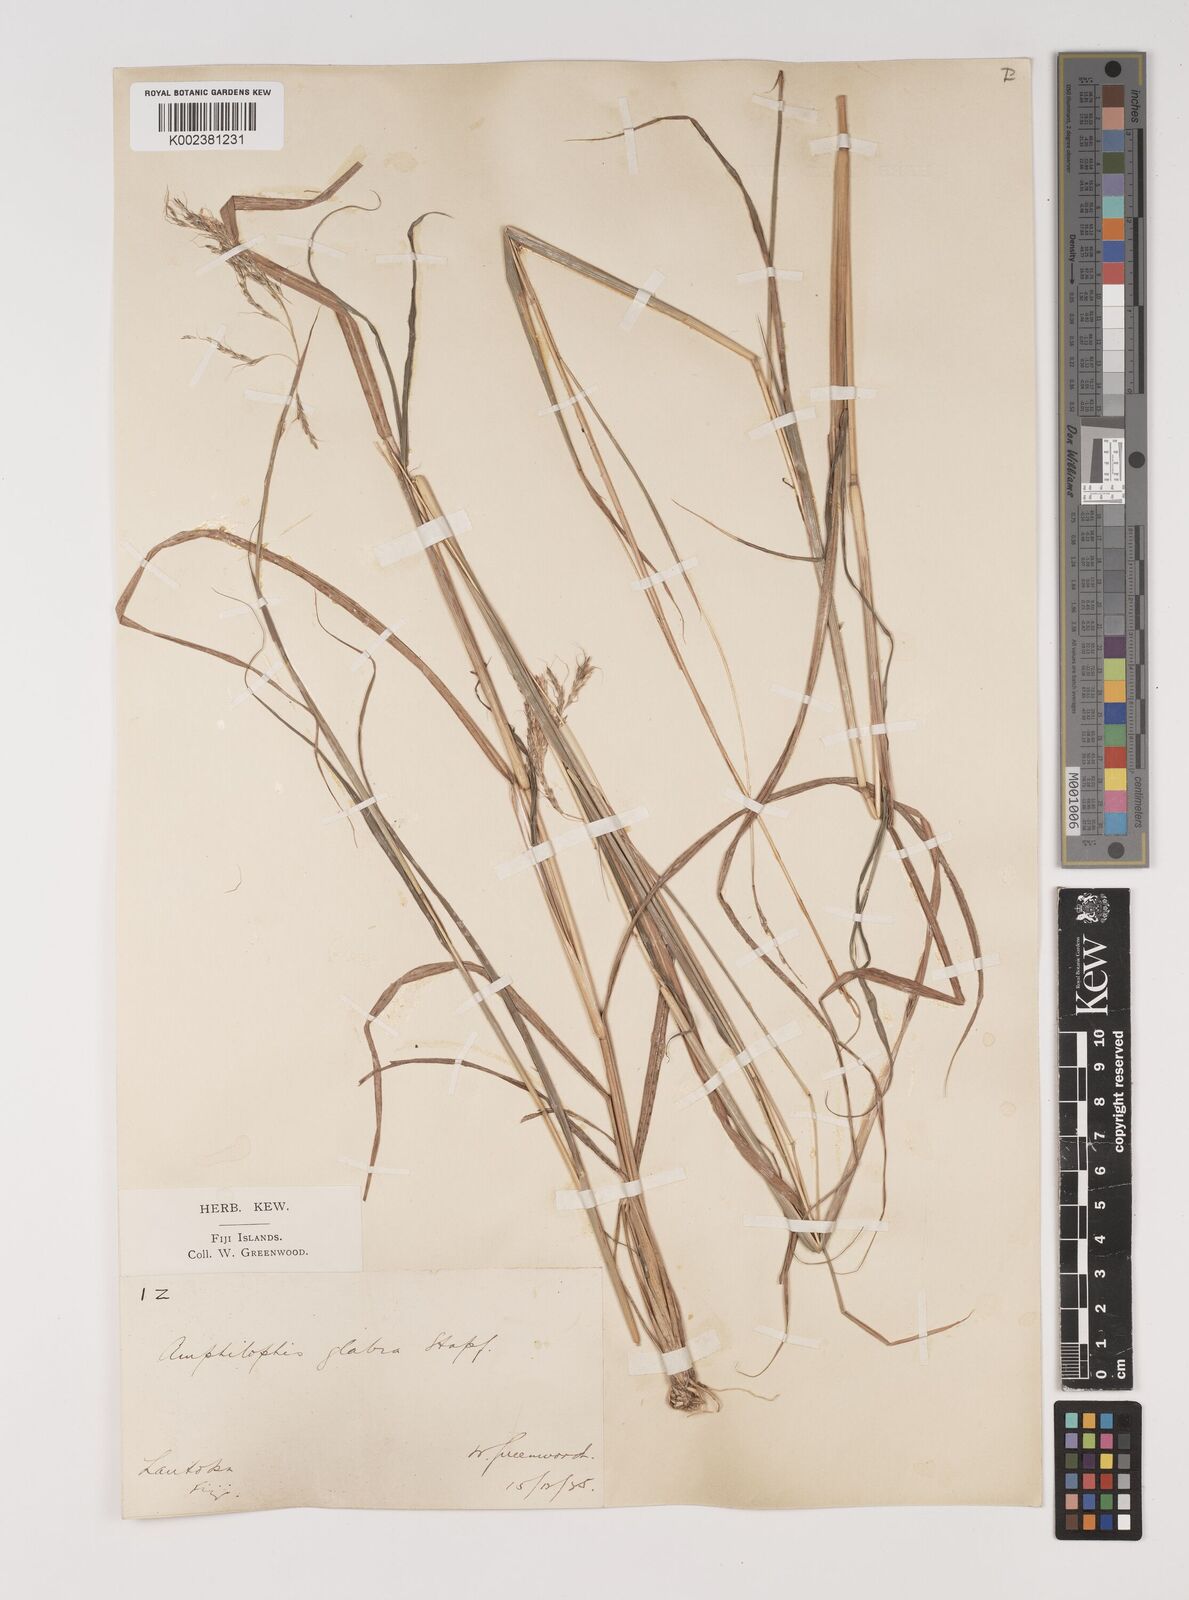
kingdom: Plantae
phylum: Tracheophyta
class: Liliopsida
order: Poales
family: Poaceae
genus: Bothriochloa
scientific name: Bothriochloa bladhii
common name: Caucasian bluestem
